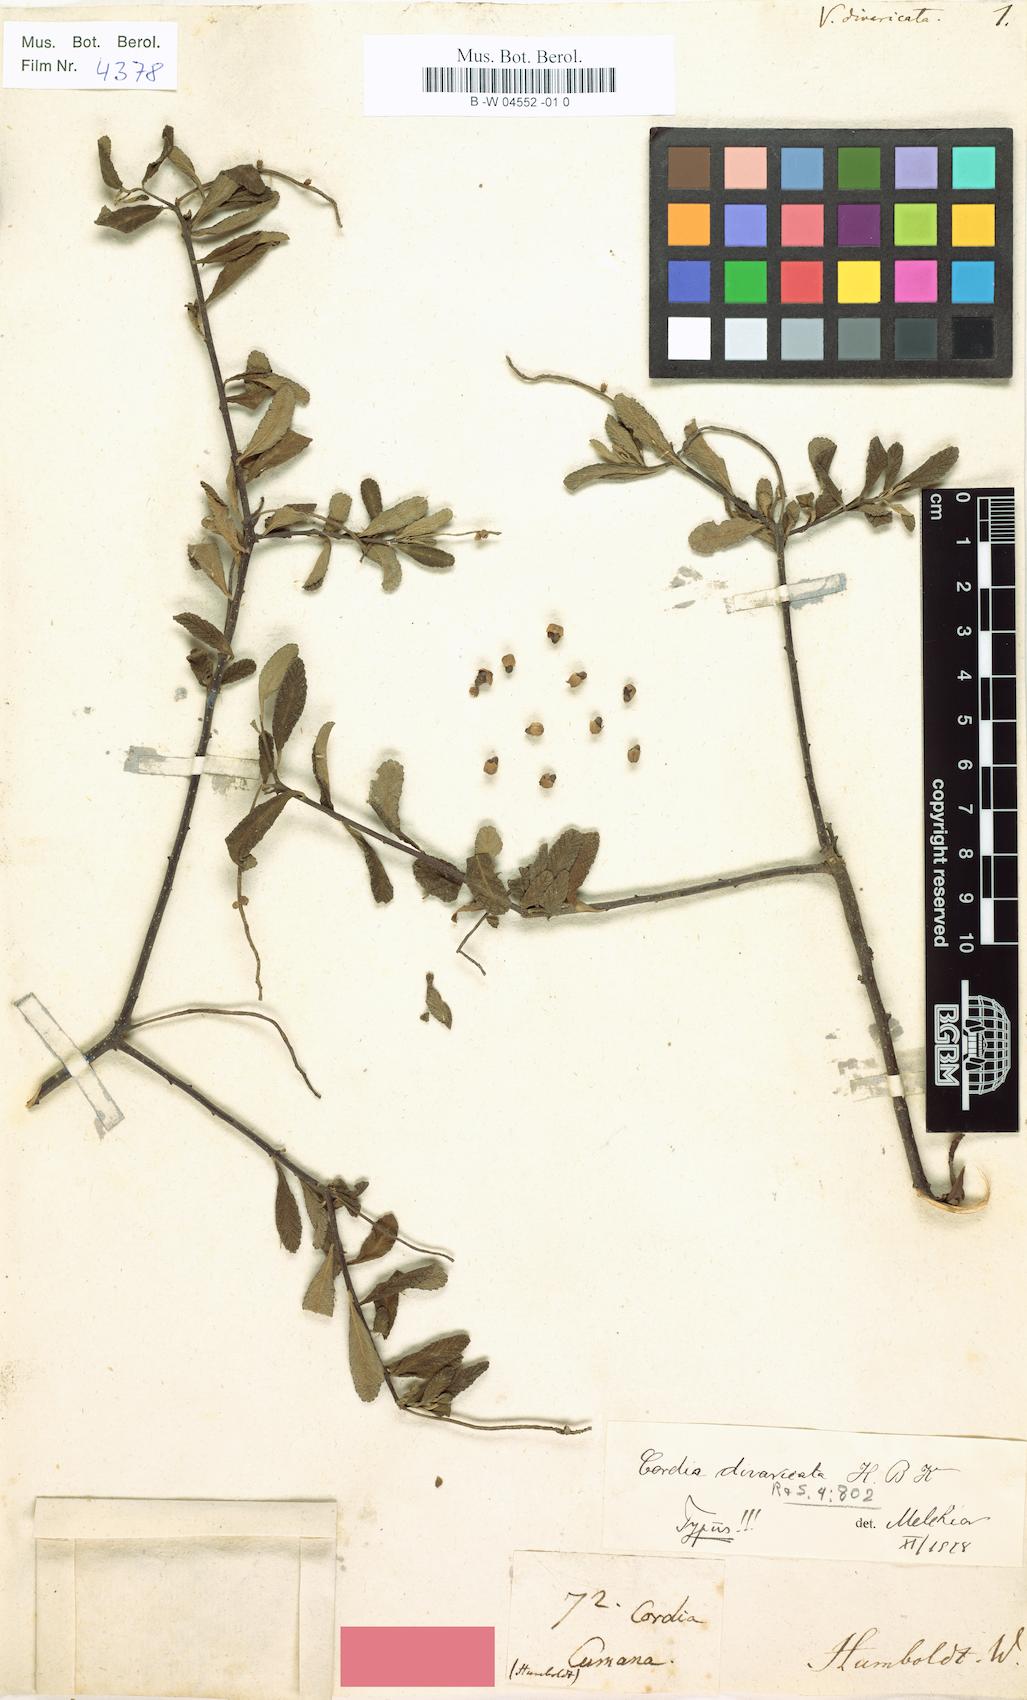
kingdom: Plantae
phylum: Tracheophyta
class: Magnoliopsida
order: Boraginales
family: Cordiaceae
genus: Varronia
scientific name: Varronia curassavica
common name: Black sage
